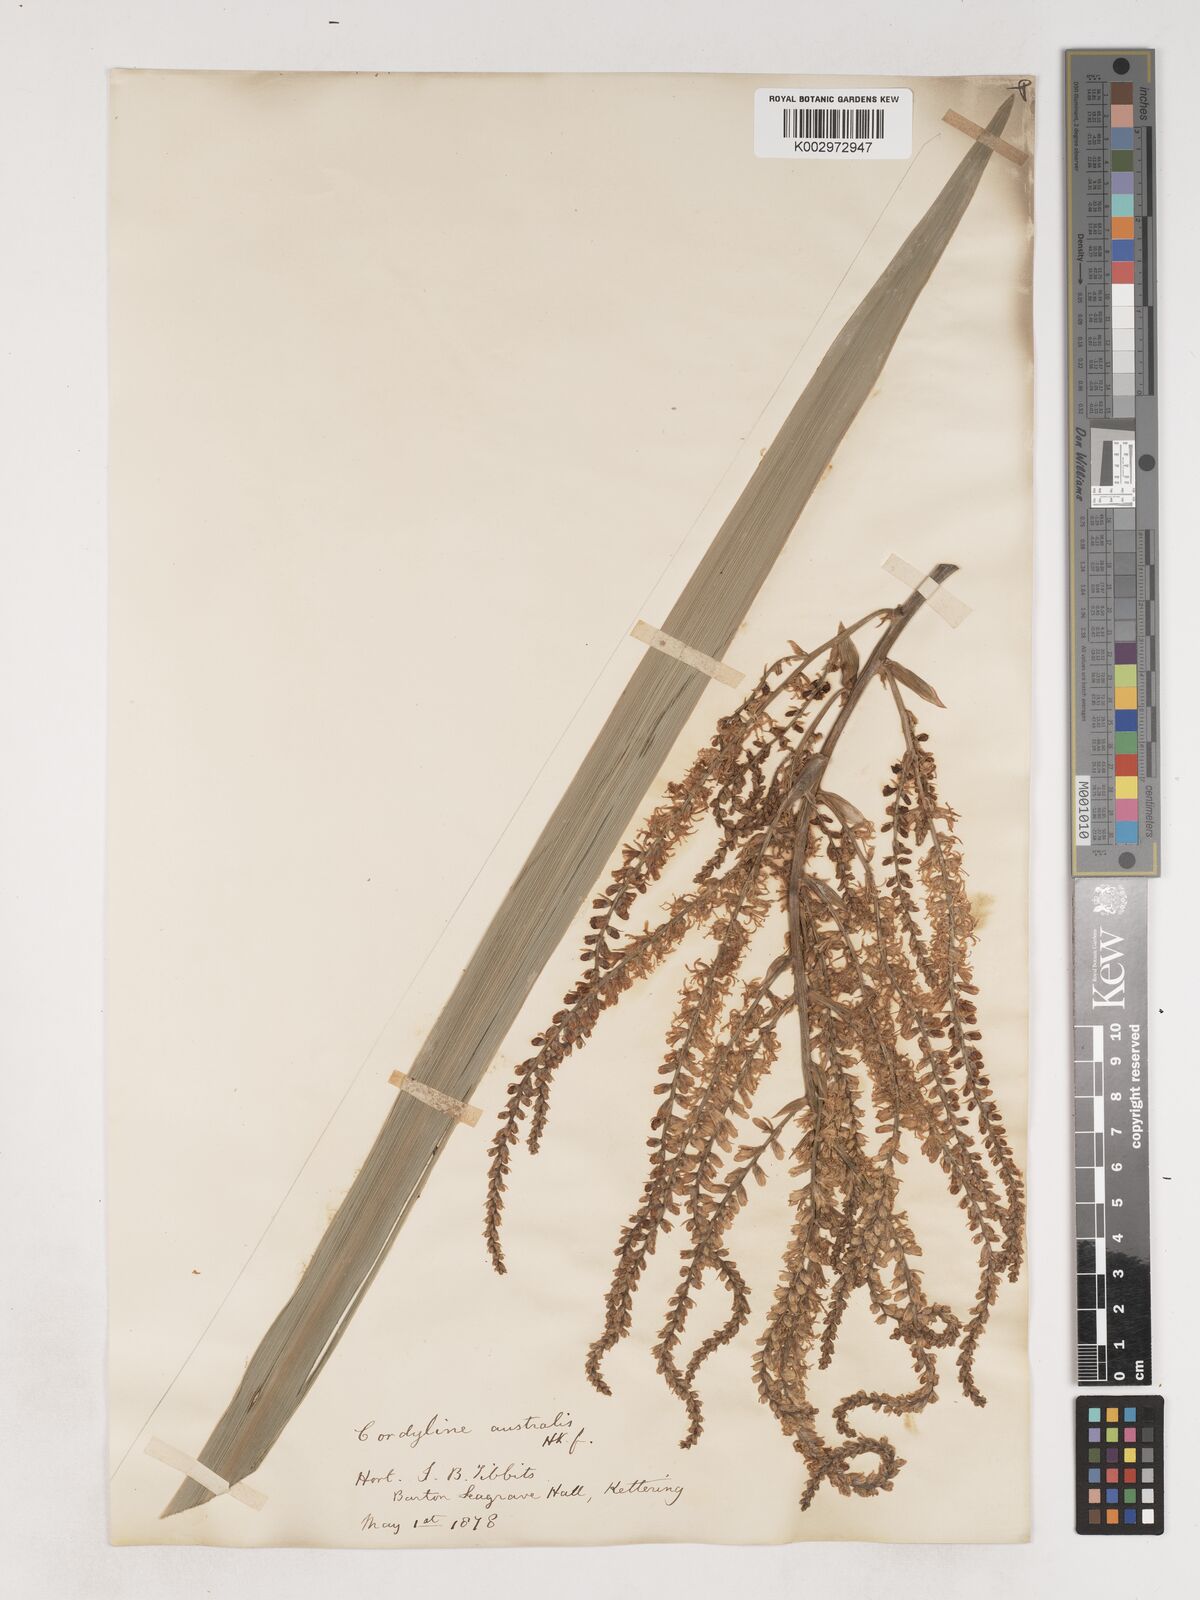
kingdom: Plantae
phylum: Tracheophyta
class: Liliopsida
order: Asparagales
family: Asparagaceae
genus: Cordyline
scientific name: Cordyline australis
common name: Cabbage-palm
